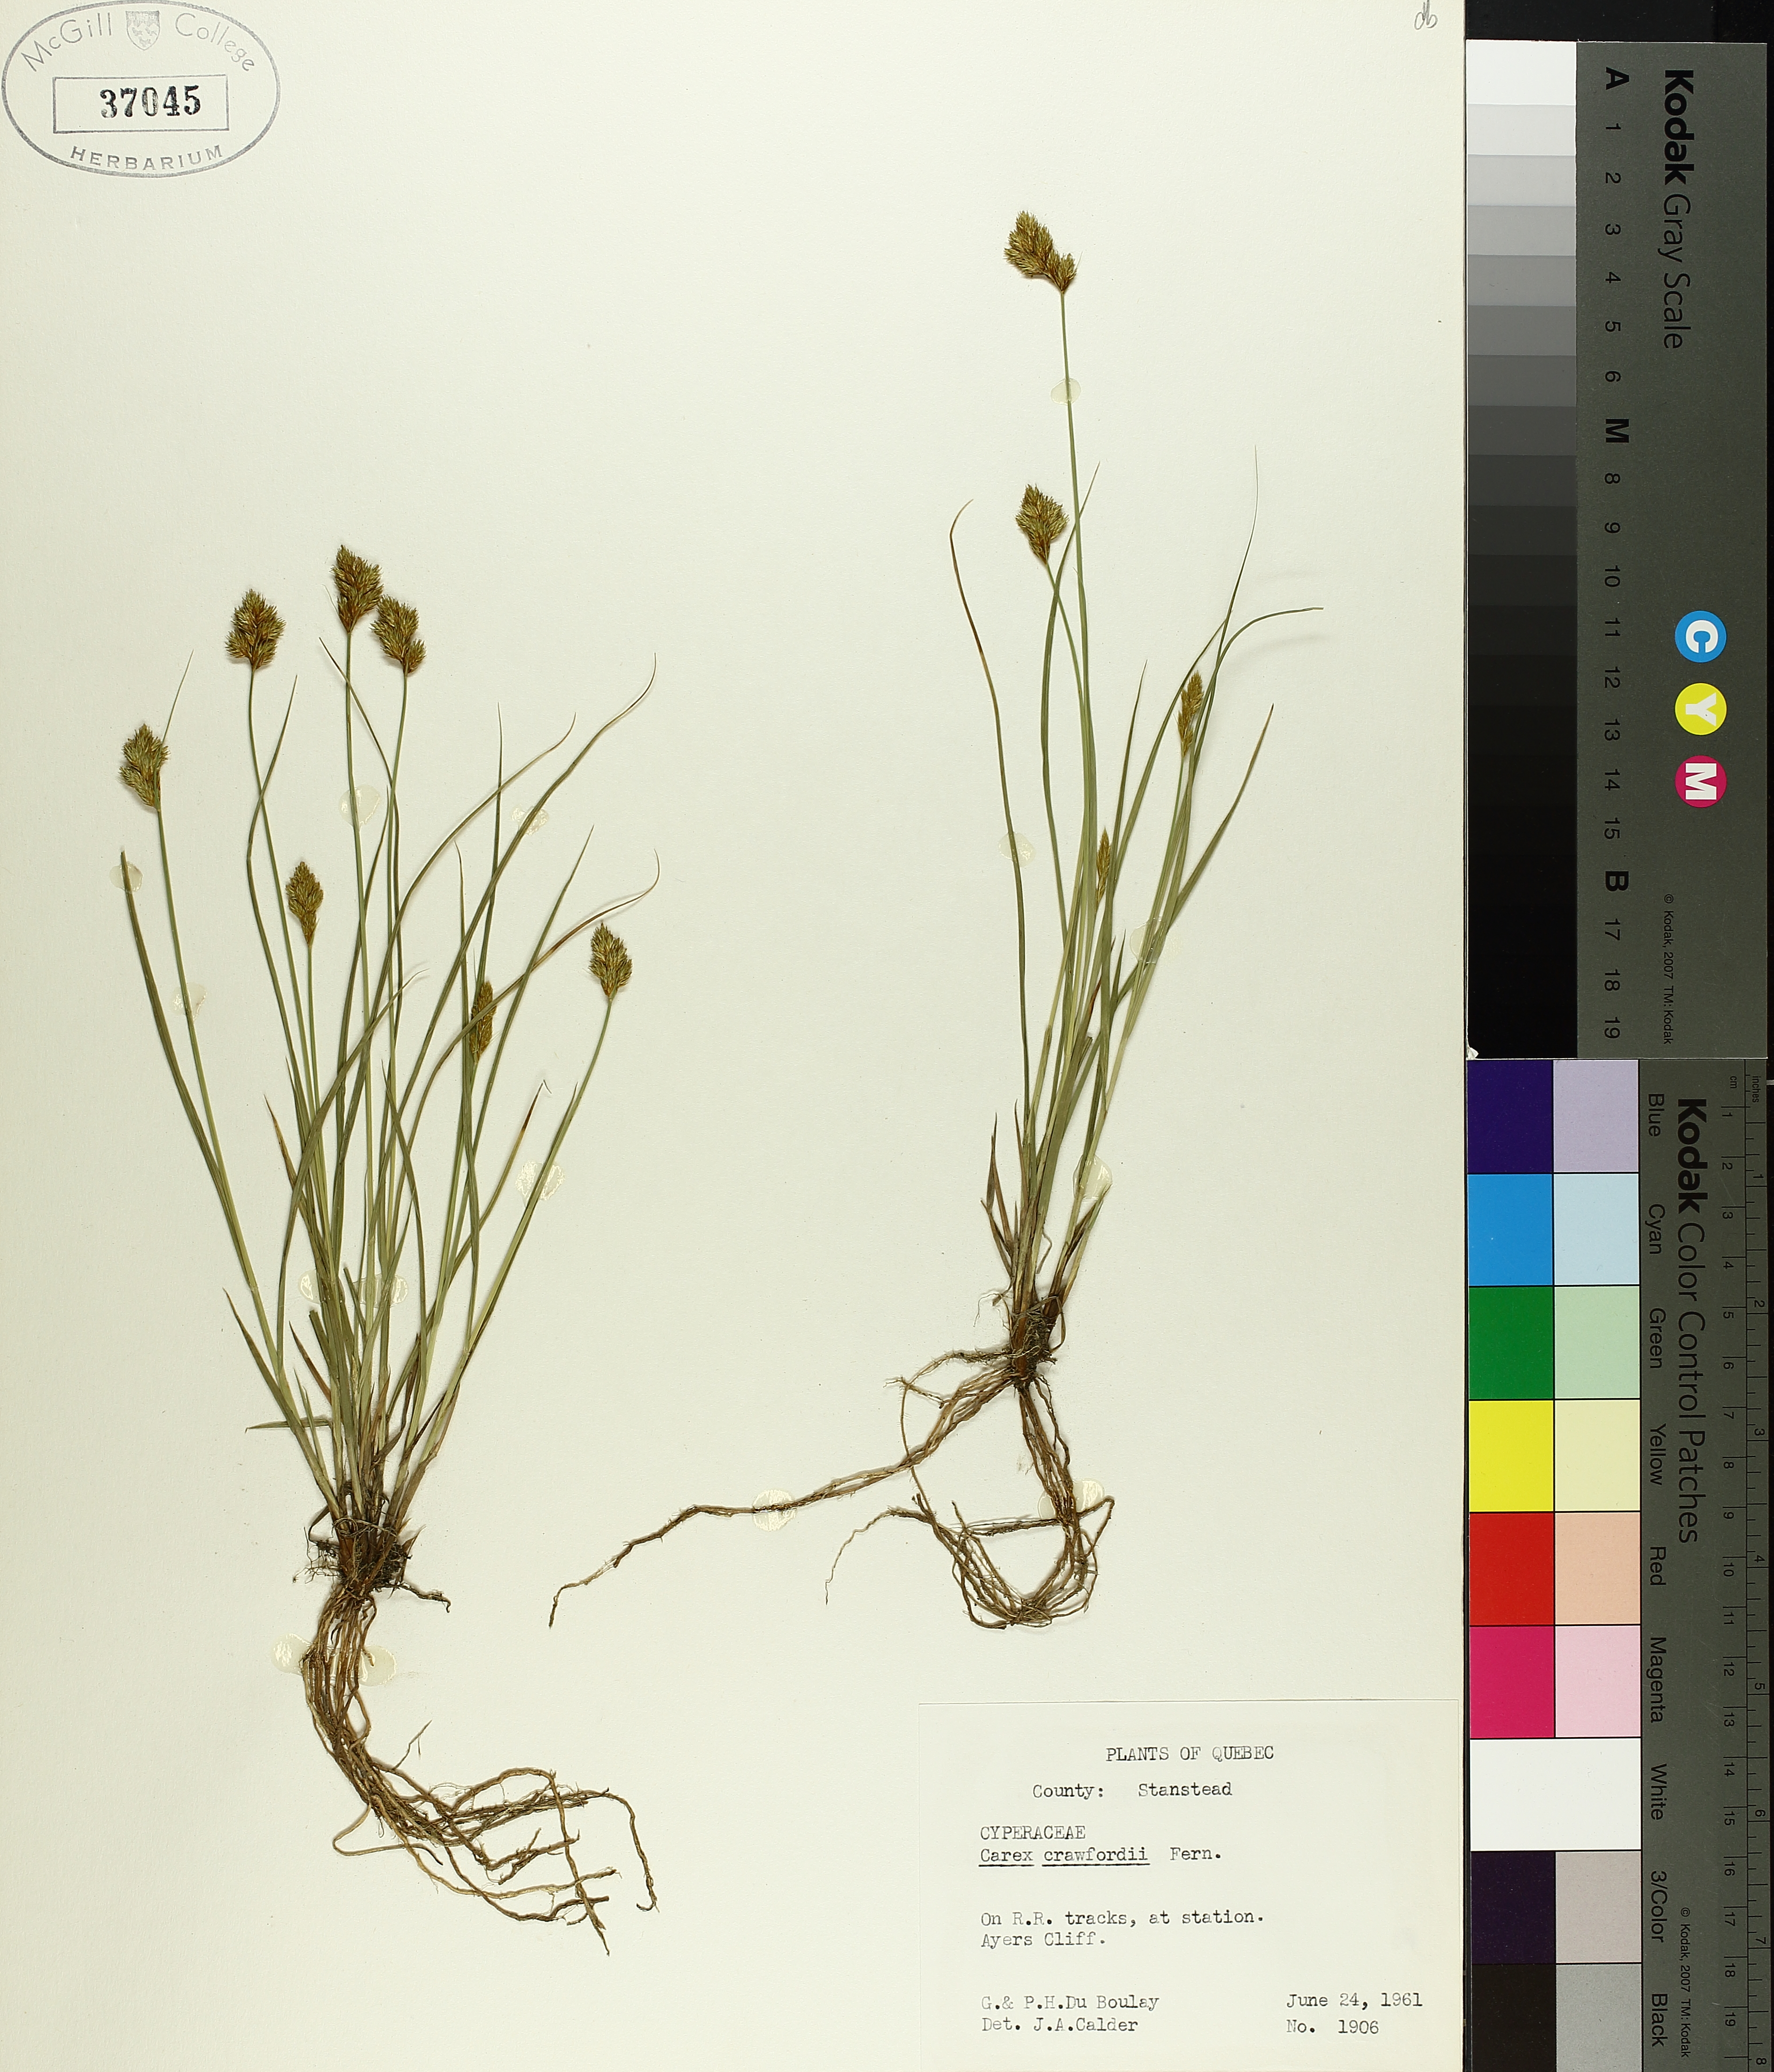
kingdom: Plantae
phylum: Tracheophyta
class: Liliopsida
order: Poales
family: Cyperaceae
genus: Carex
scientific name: Carex crawfordii
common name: Crawford's sedge
